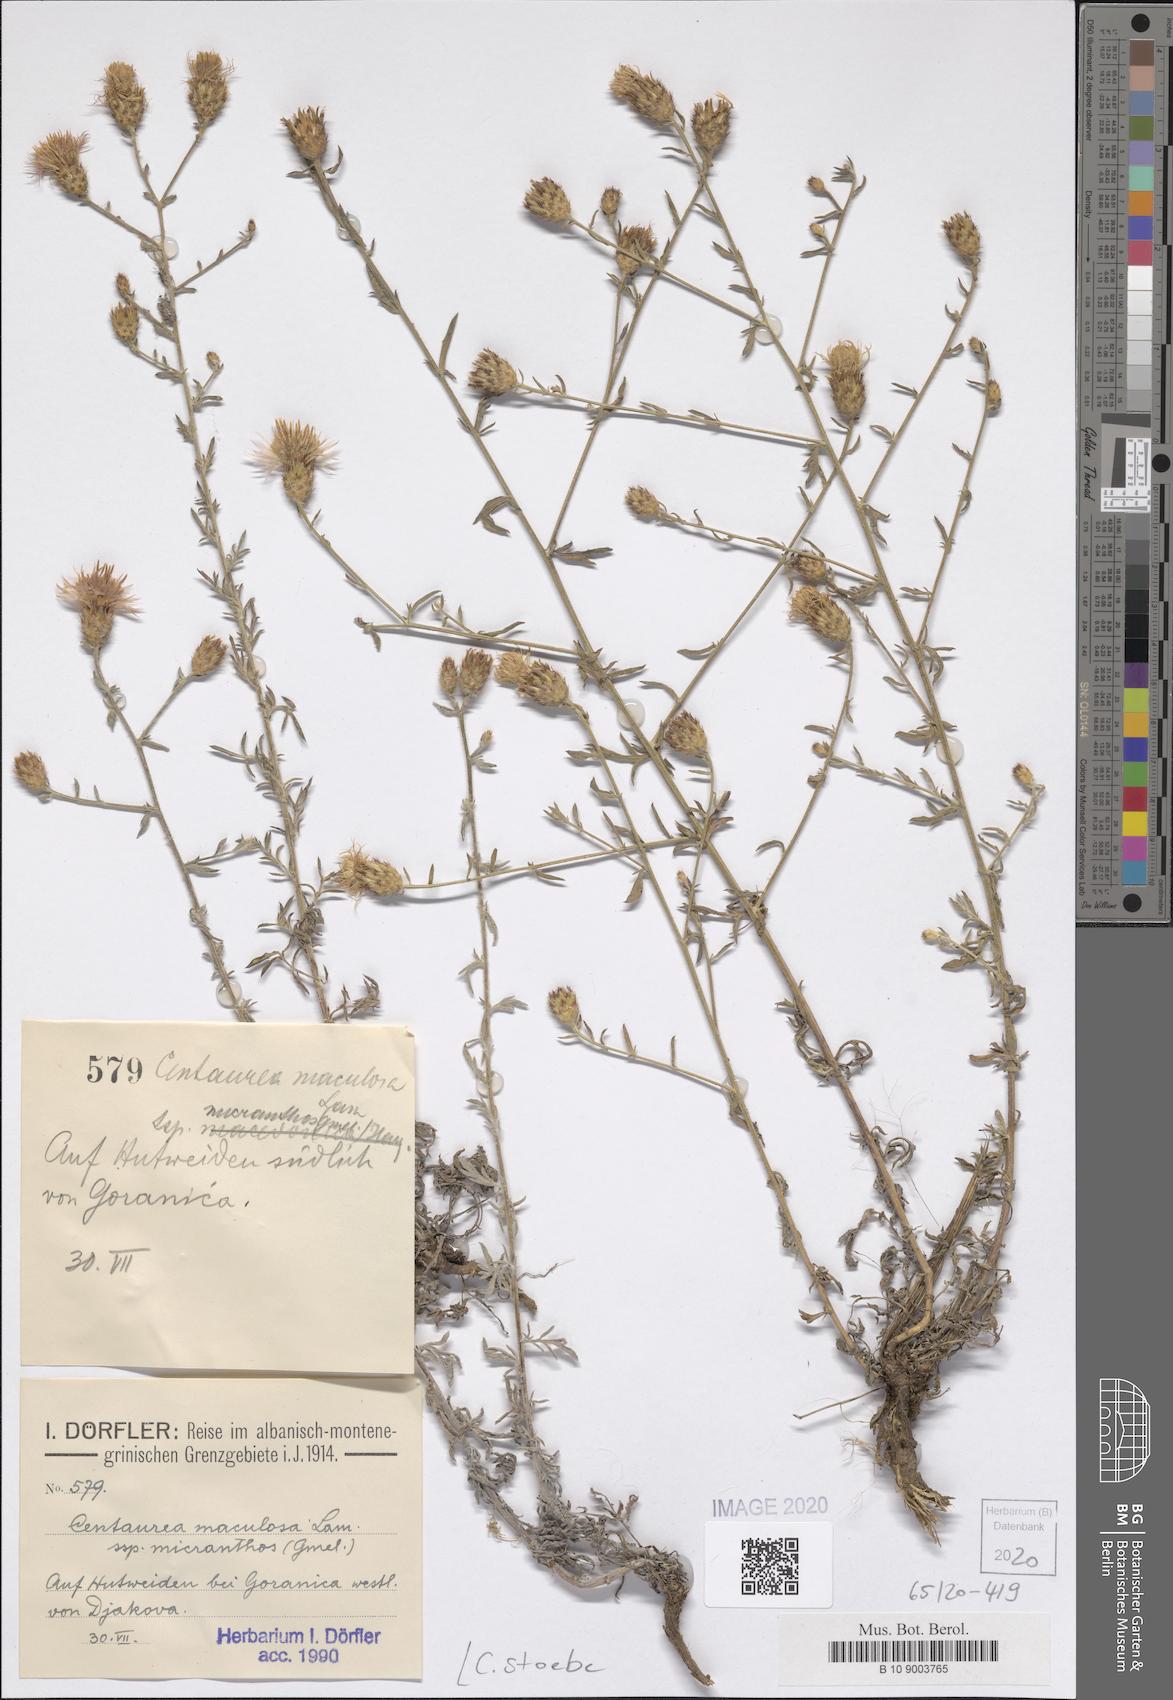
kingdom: Plantae
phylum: Tracheophyta
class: Magnoliopsida
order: Asterales
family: Asteraceae
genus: Centaurea
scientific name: Centaurea stoebe
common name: Spotted knapweed
